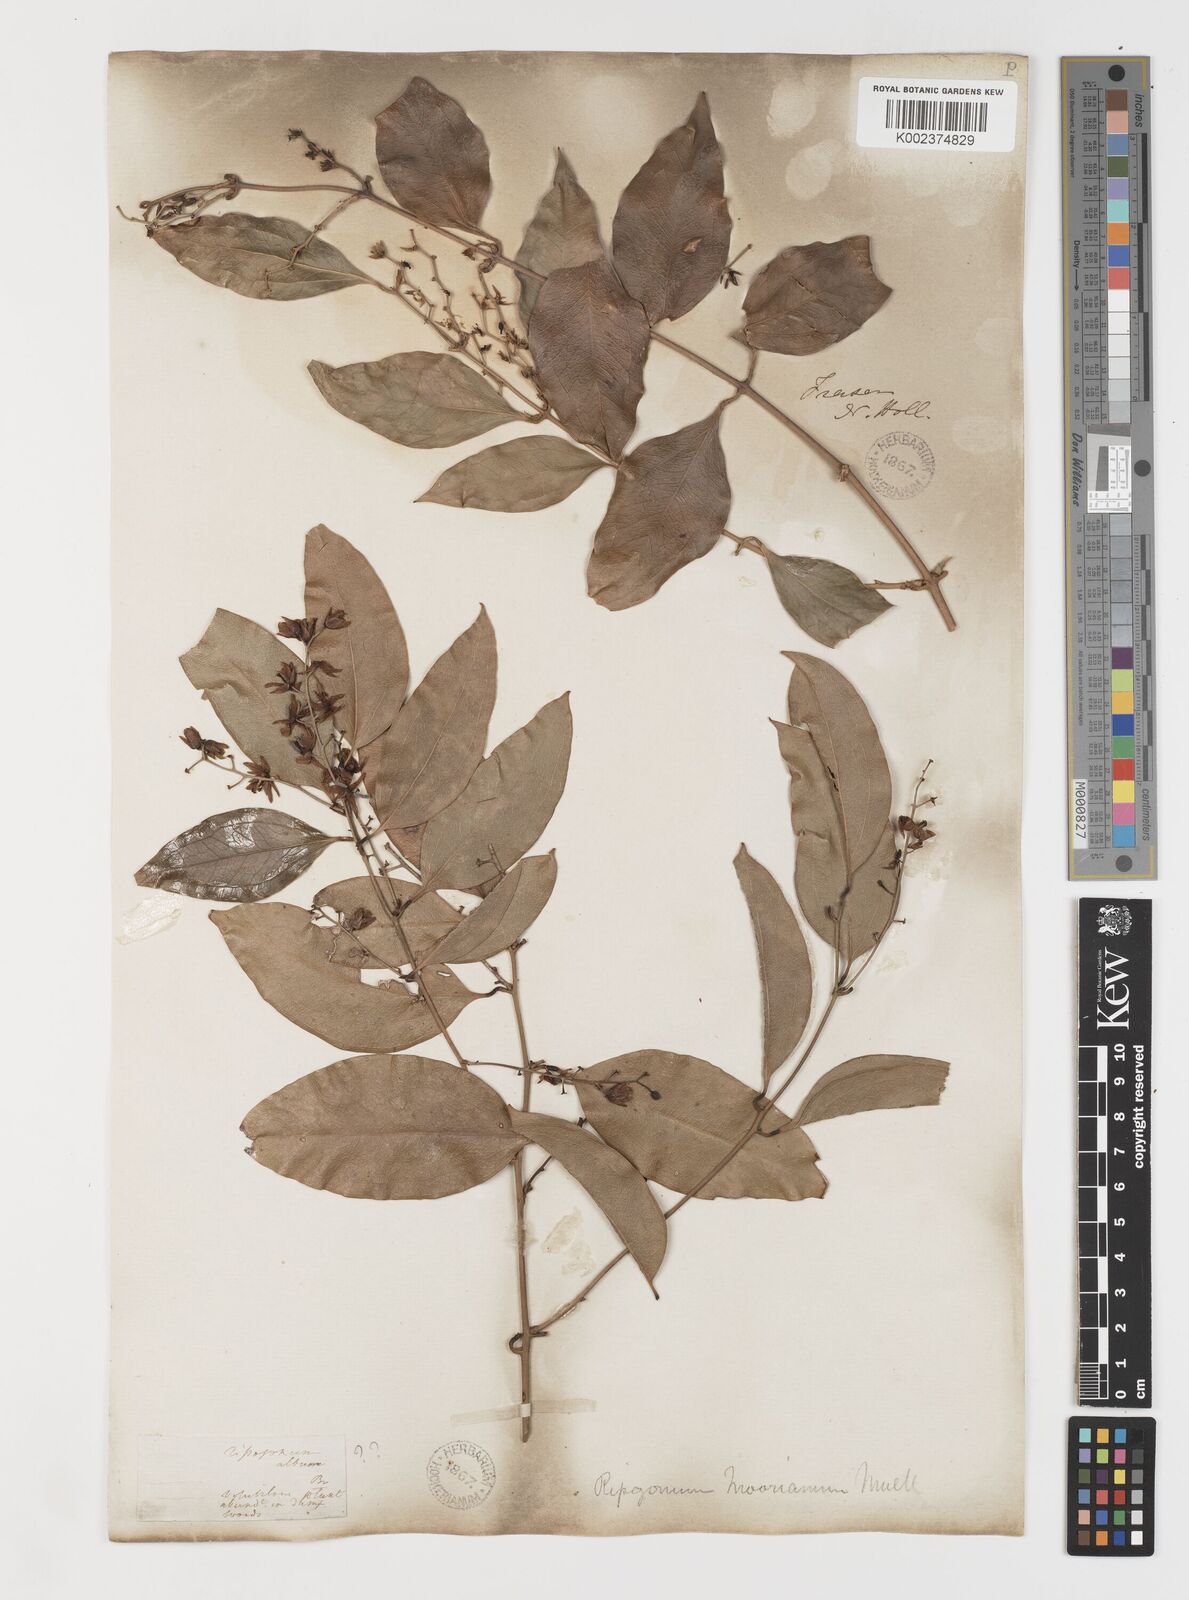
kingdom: Plantae
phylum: Tracheophyta
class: Liliopsida
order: Liliales
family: Ripogonaceae
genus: Ripogonum
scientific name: Ripogonum album
